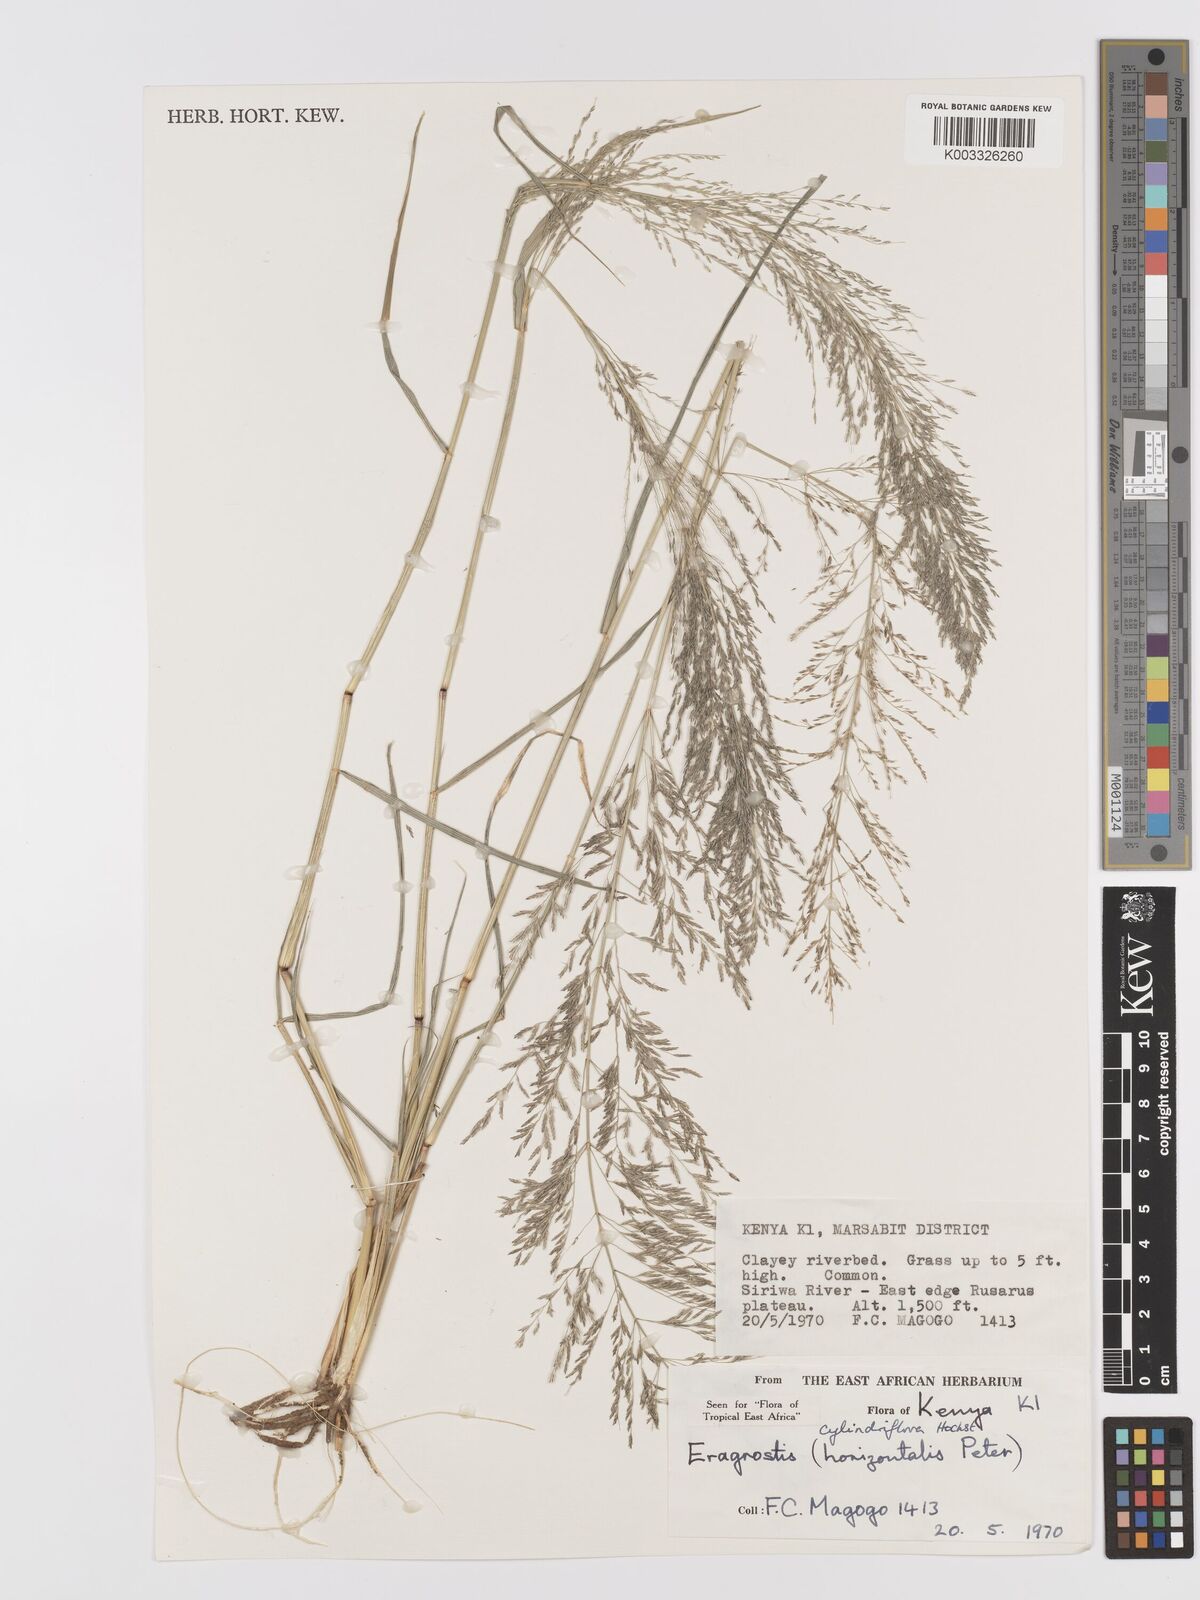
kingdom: Plantae
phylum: Tracheophyta
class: Liliopsida
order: Poales
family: Poaceae
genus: Eragrostis
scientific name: Eragrostis cylindriflora
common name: Cylinderflower lovegrass
